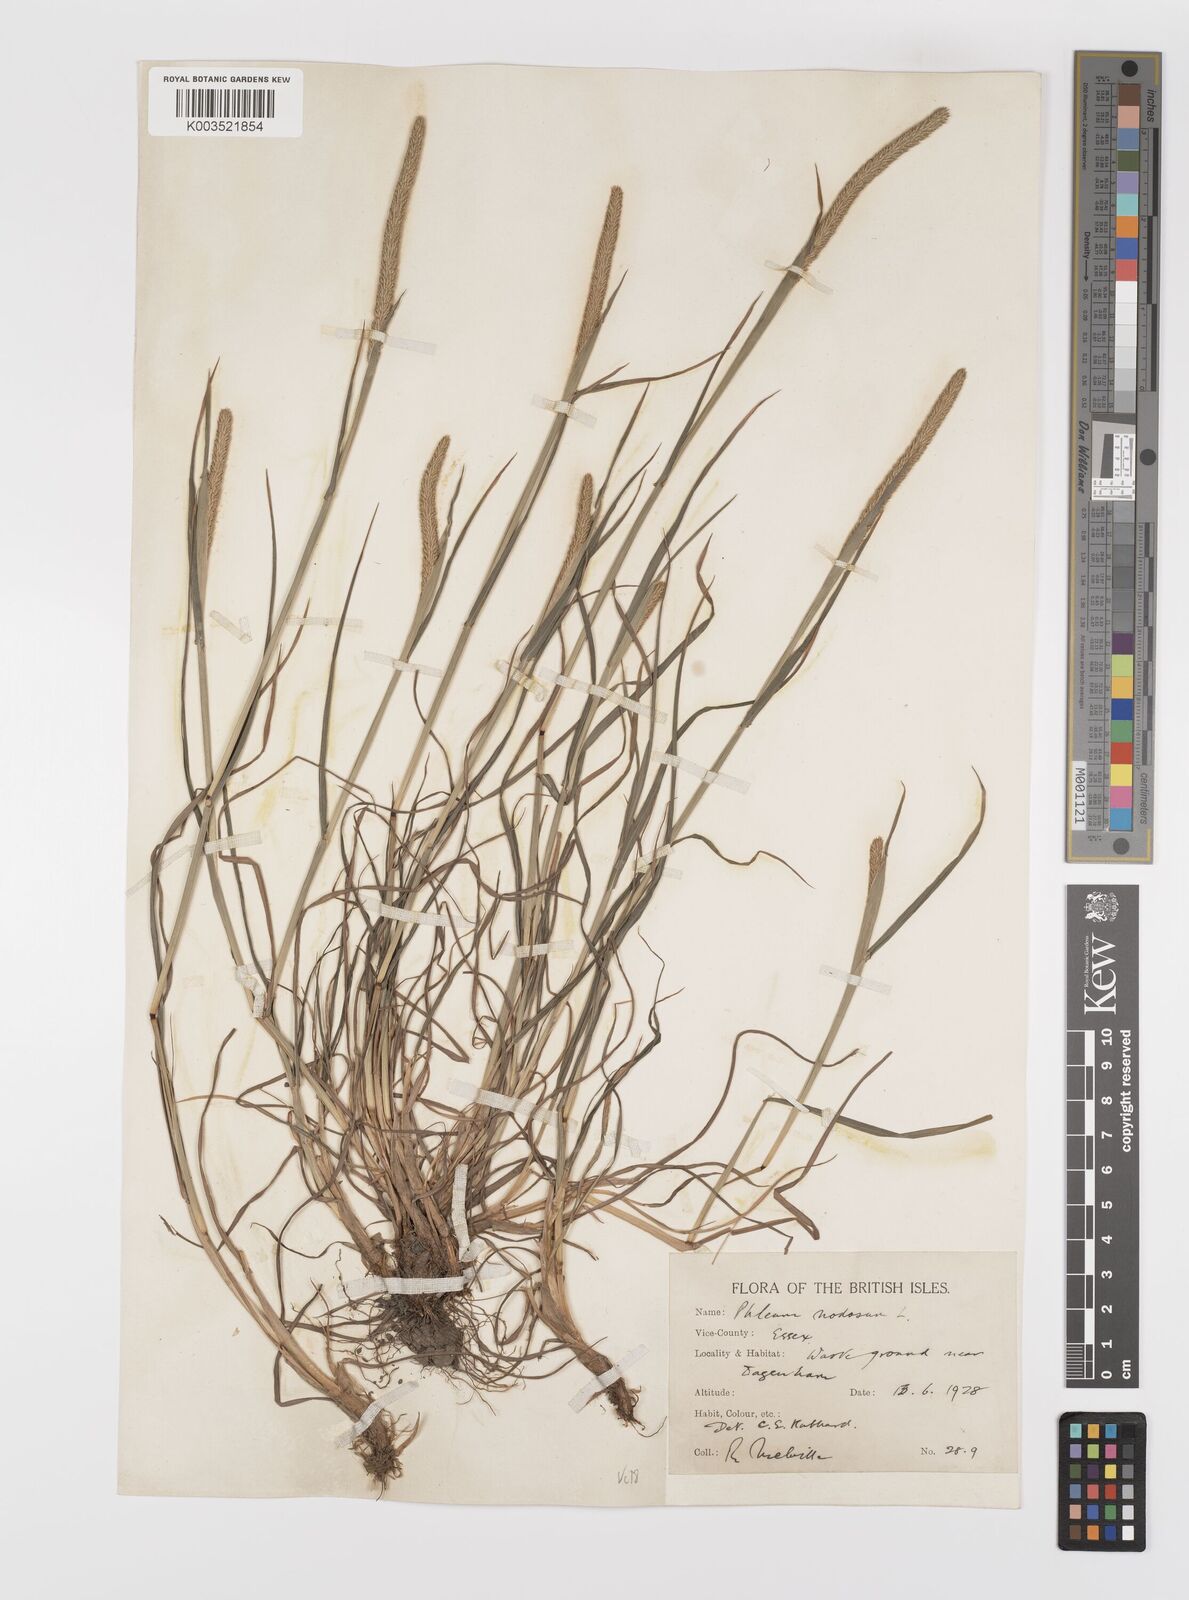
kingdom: Plantae
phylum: Tracheophyta
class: Liliopsida
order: Poales
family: Poaceae
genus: Phleum
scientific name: Phleum bertolonii
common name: Smaller cat's-tail
